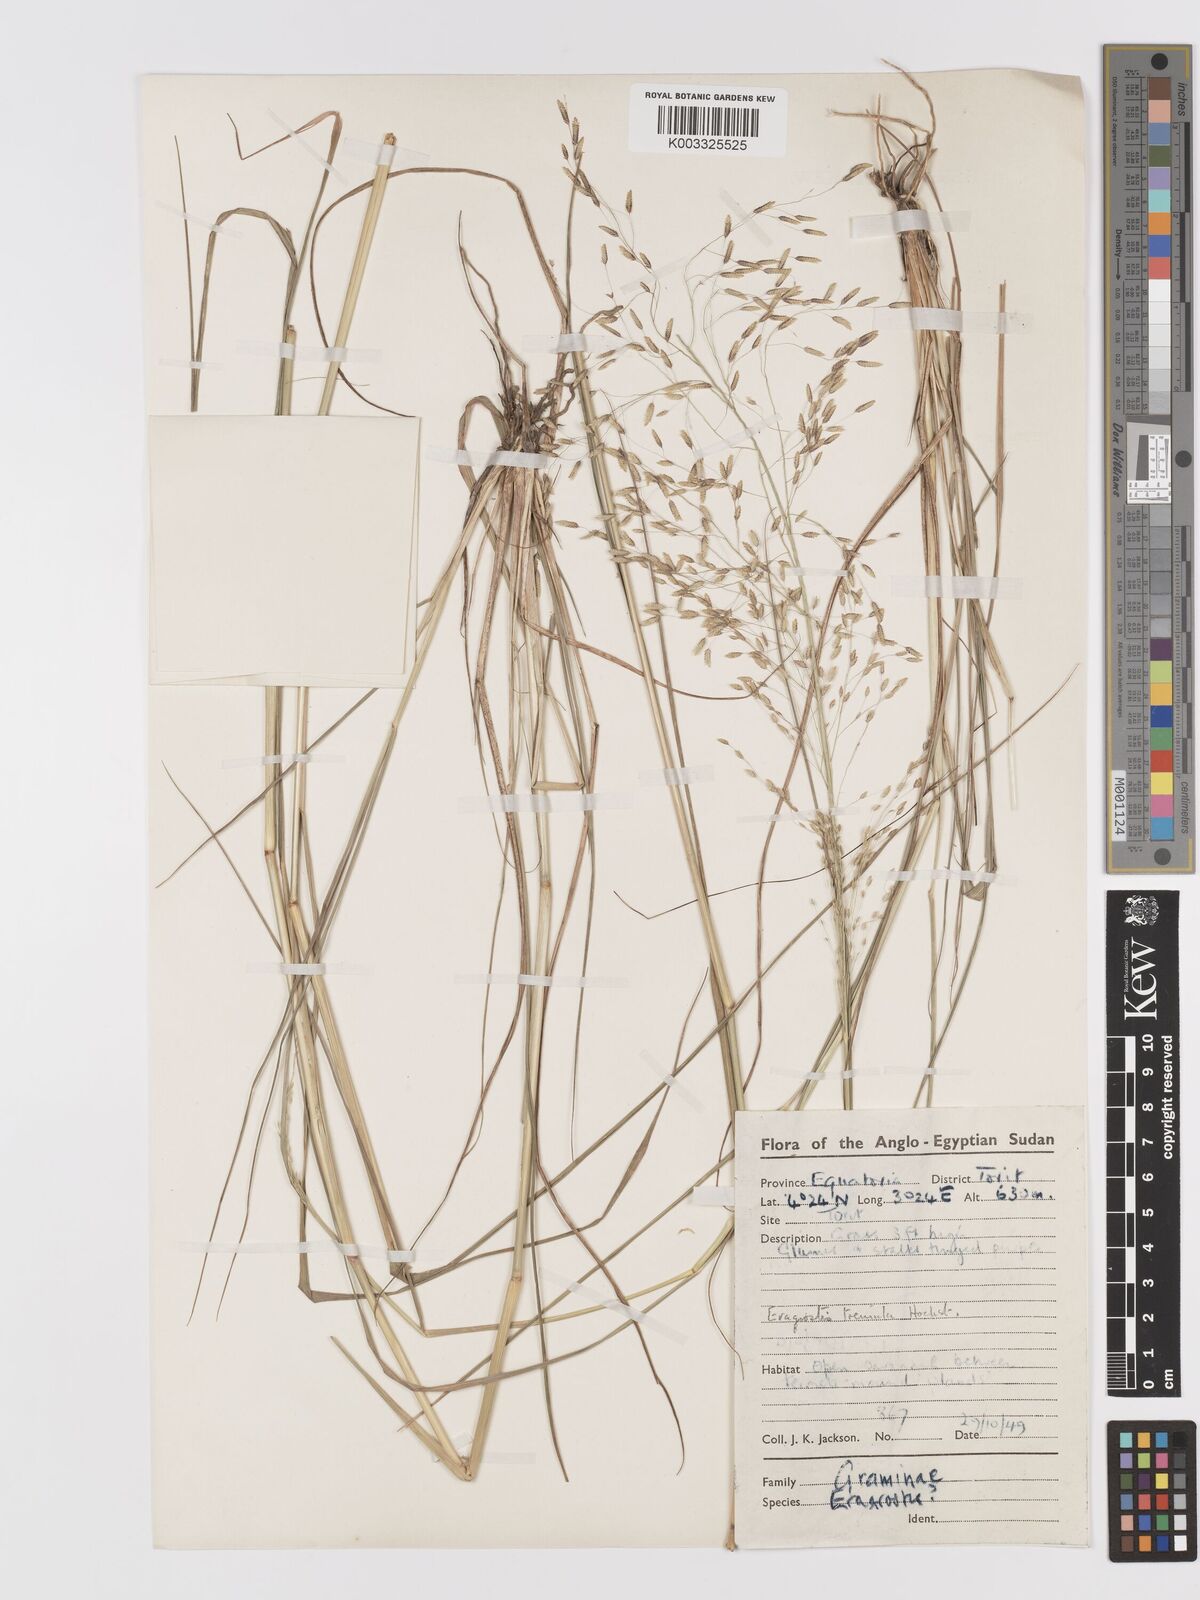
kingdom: Plantae
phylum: Tracheophyta
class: Liliopsida
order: Poales
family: Poaceae
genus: Eragrostis
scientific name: Eragrostis tremula
